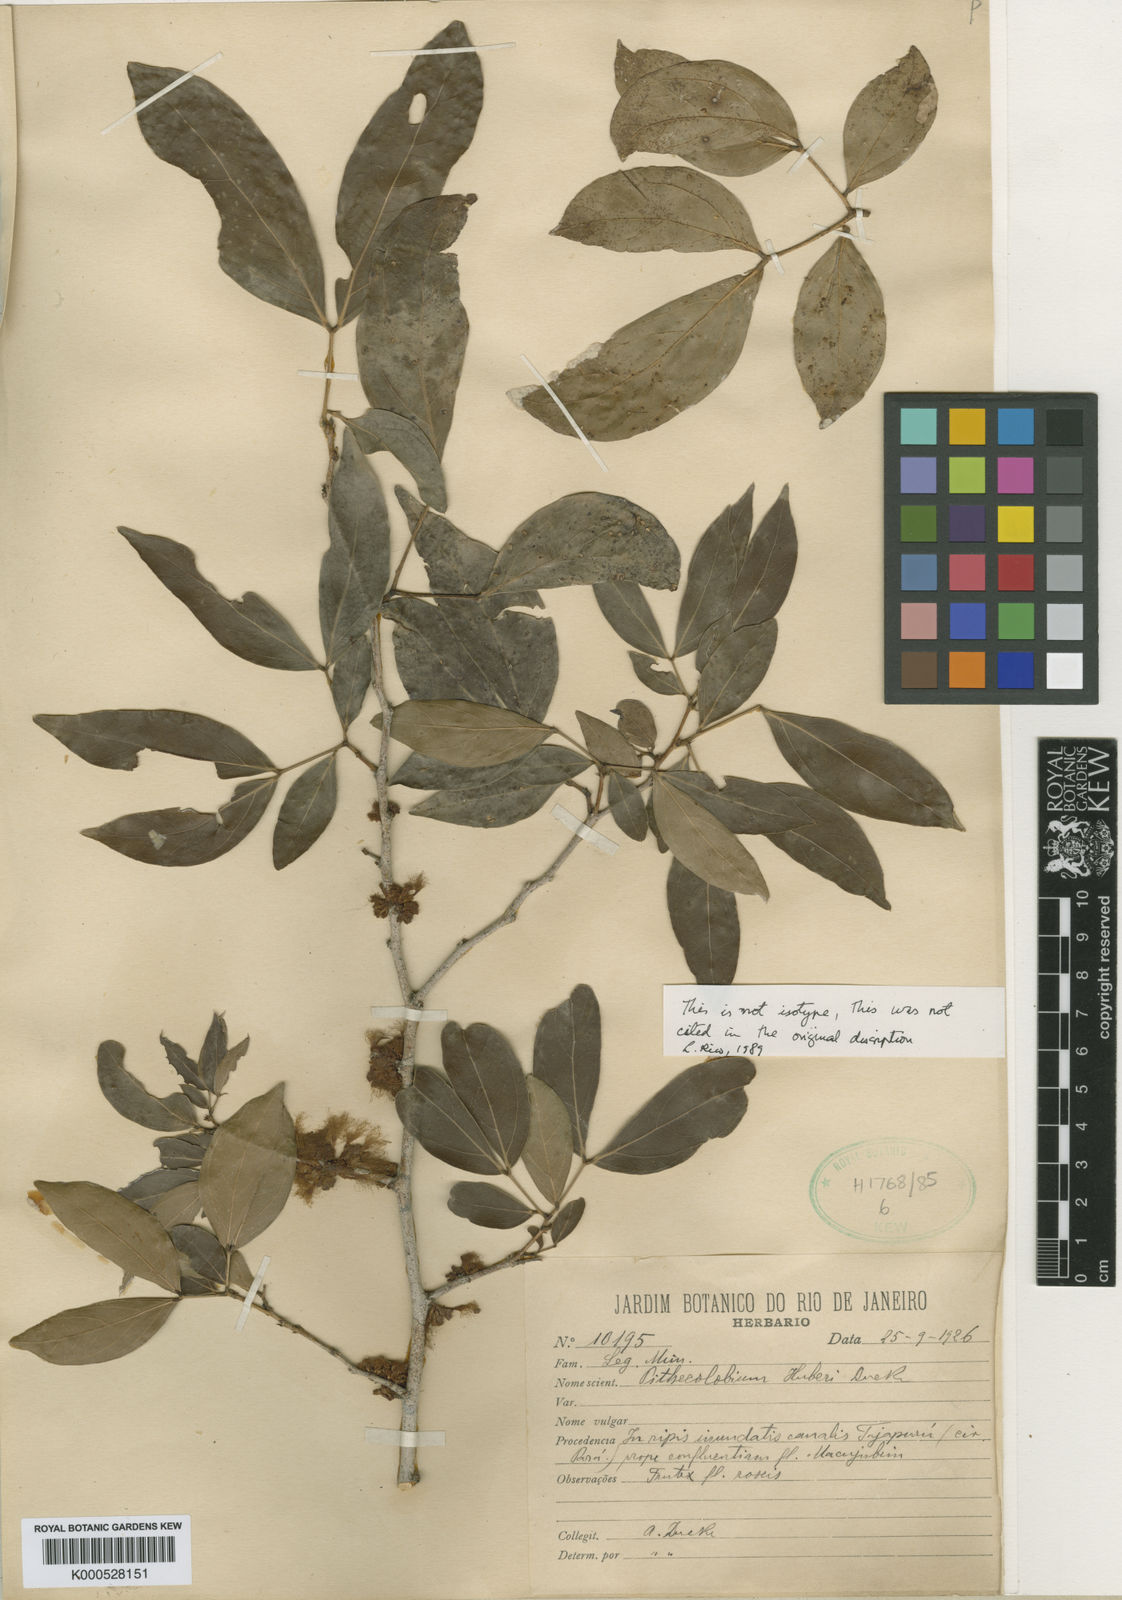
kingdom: Plantae
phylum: Tracheophyta
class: Magnoliopsida
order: Fabales
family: Fabaceae
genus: Zygia
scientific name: Zygia latifolia
